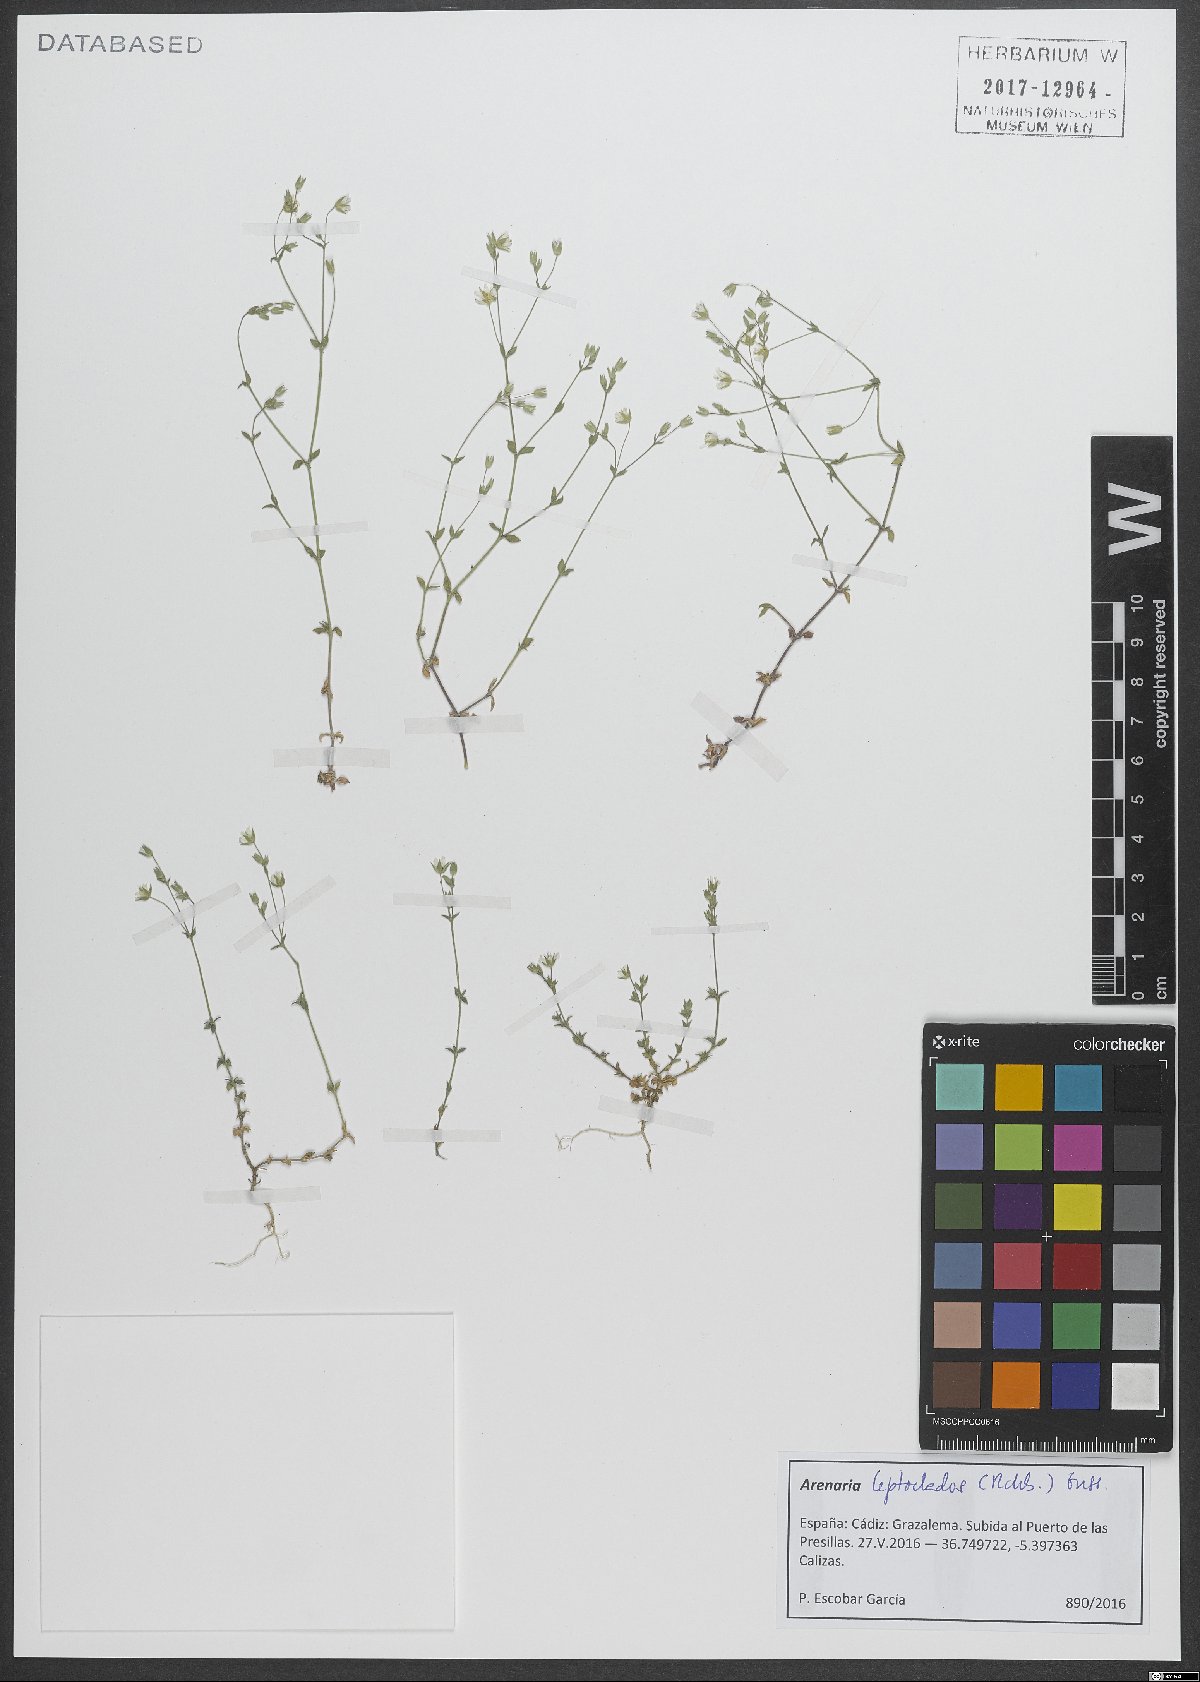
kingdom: Plantae
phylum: Tracheophyta
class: Magnoliopsida
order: Caryophyllales
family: Caryophyllaceae
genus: Arenaria
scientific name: Arenaria leptoclados
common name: Thyme-leaved sandwort
